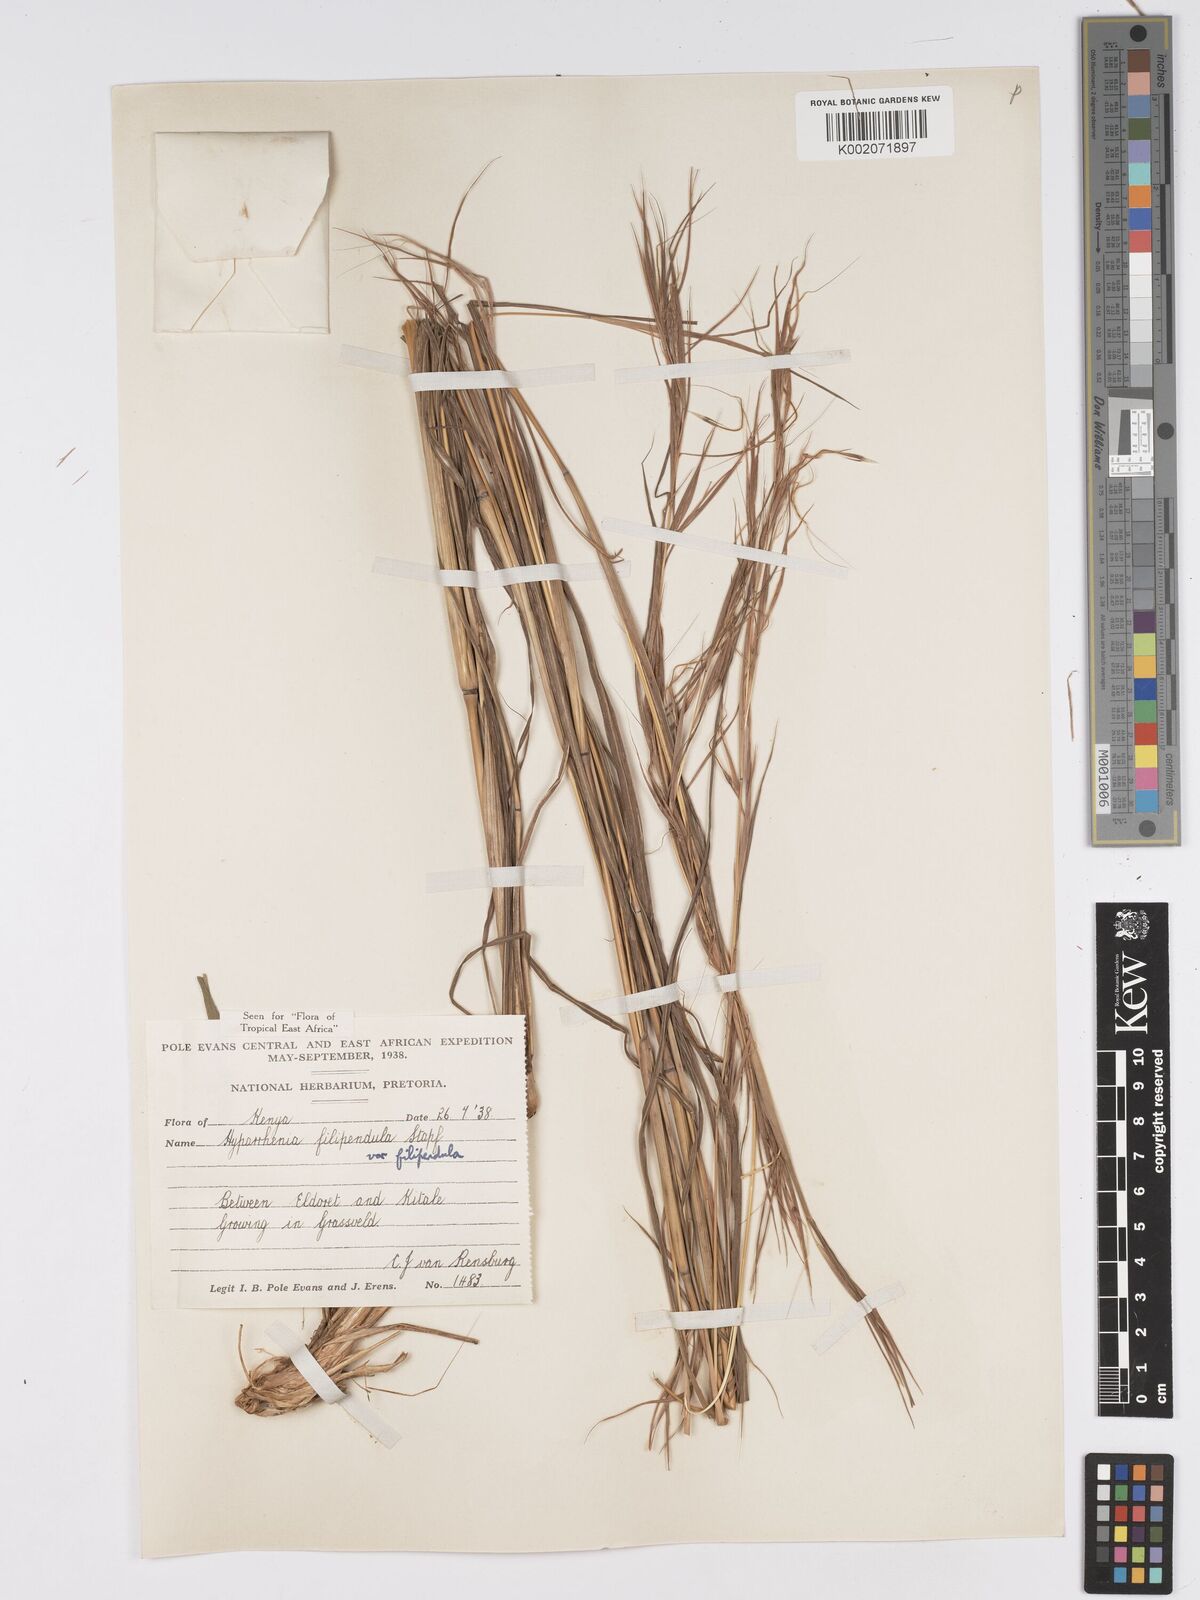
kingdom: Plantae
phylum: Tracheophyta
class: Liliopsida
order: Poales
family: Poaceae
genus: Hyparrhenia
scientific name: Hyparrhenia filipendula
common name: Tambookie grass
